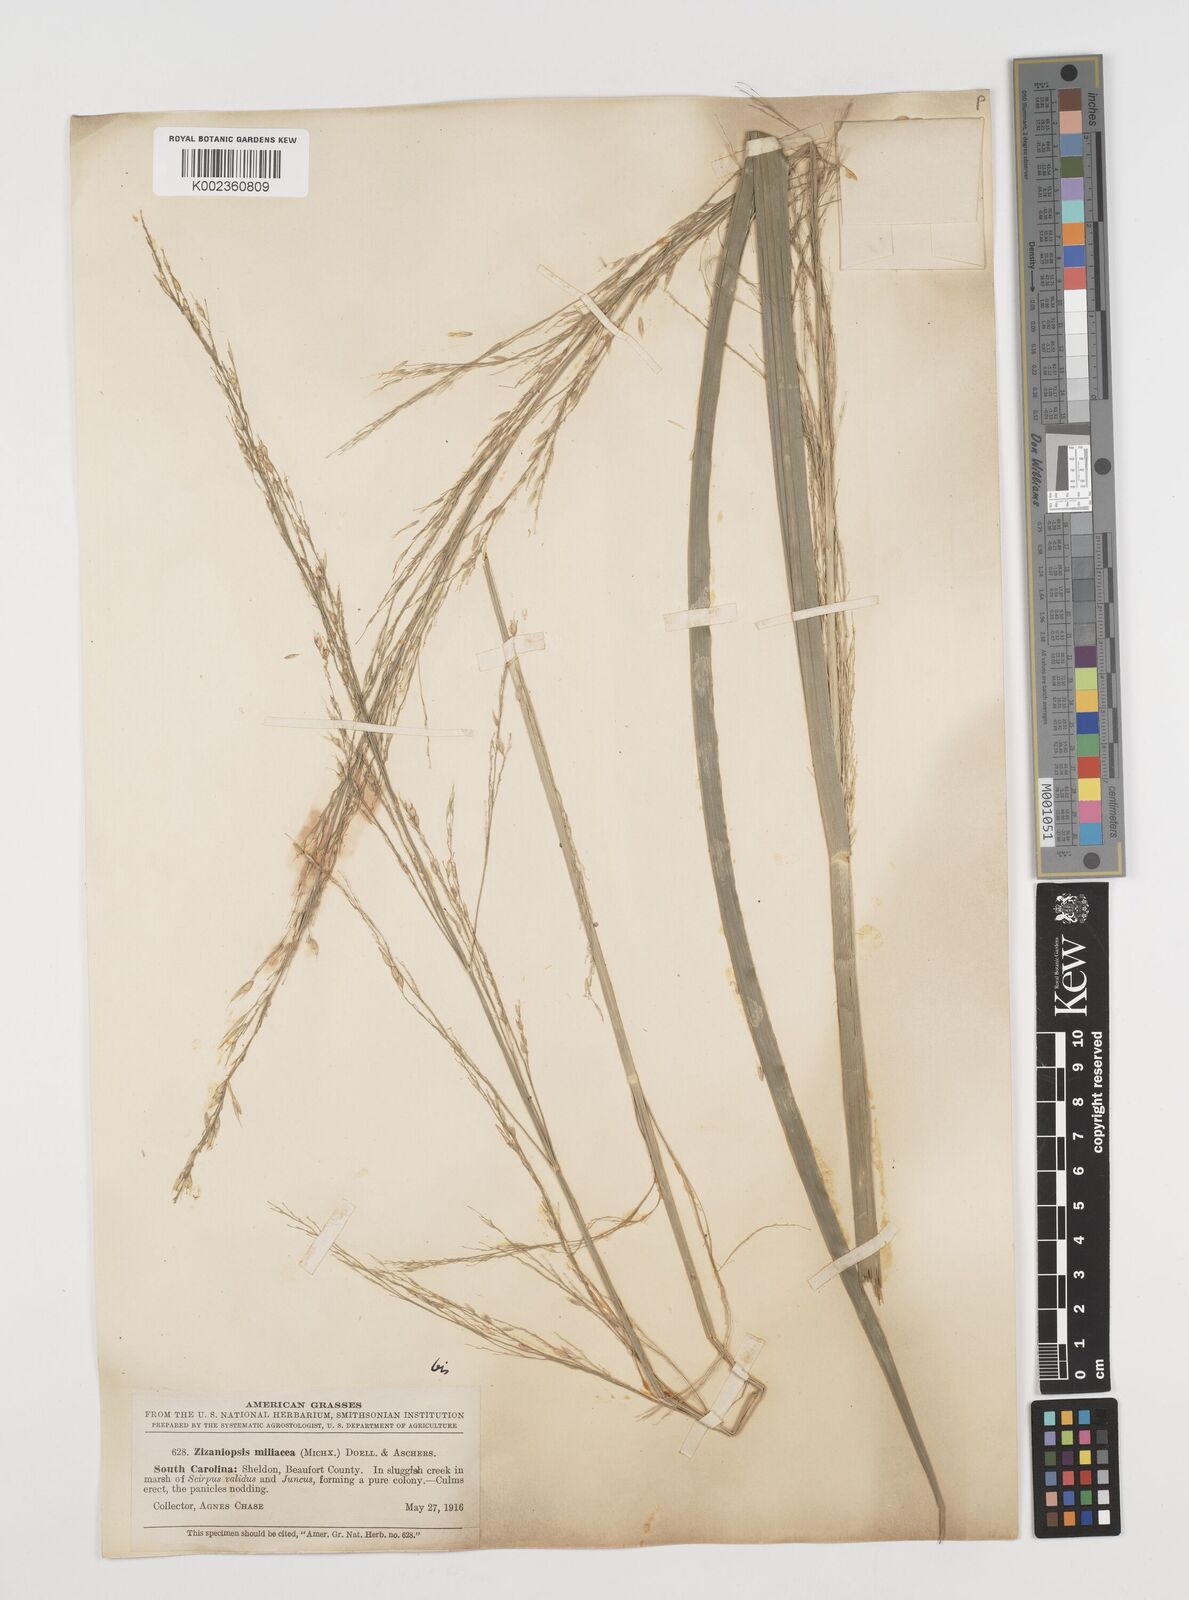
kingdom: Plantae
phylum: Tracheophyta
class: Liliopsida
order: Poales
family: Poaceae
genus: Zizaniopsis
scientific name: Zizaniopsis miliacea
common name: Giant-cutgrass
